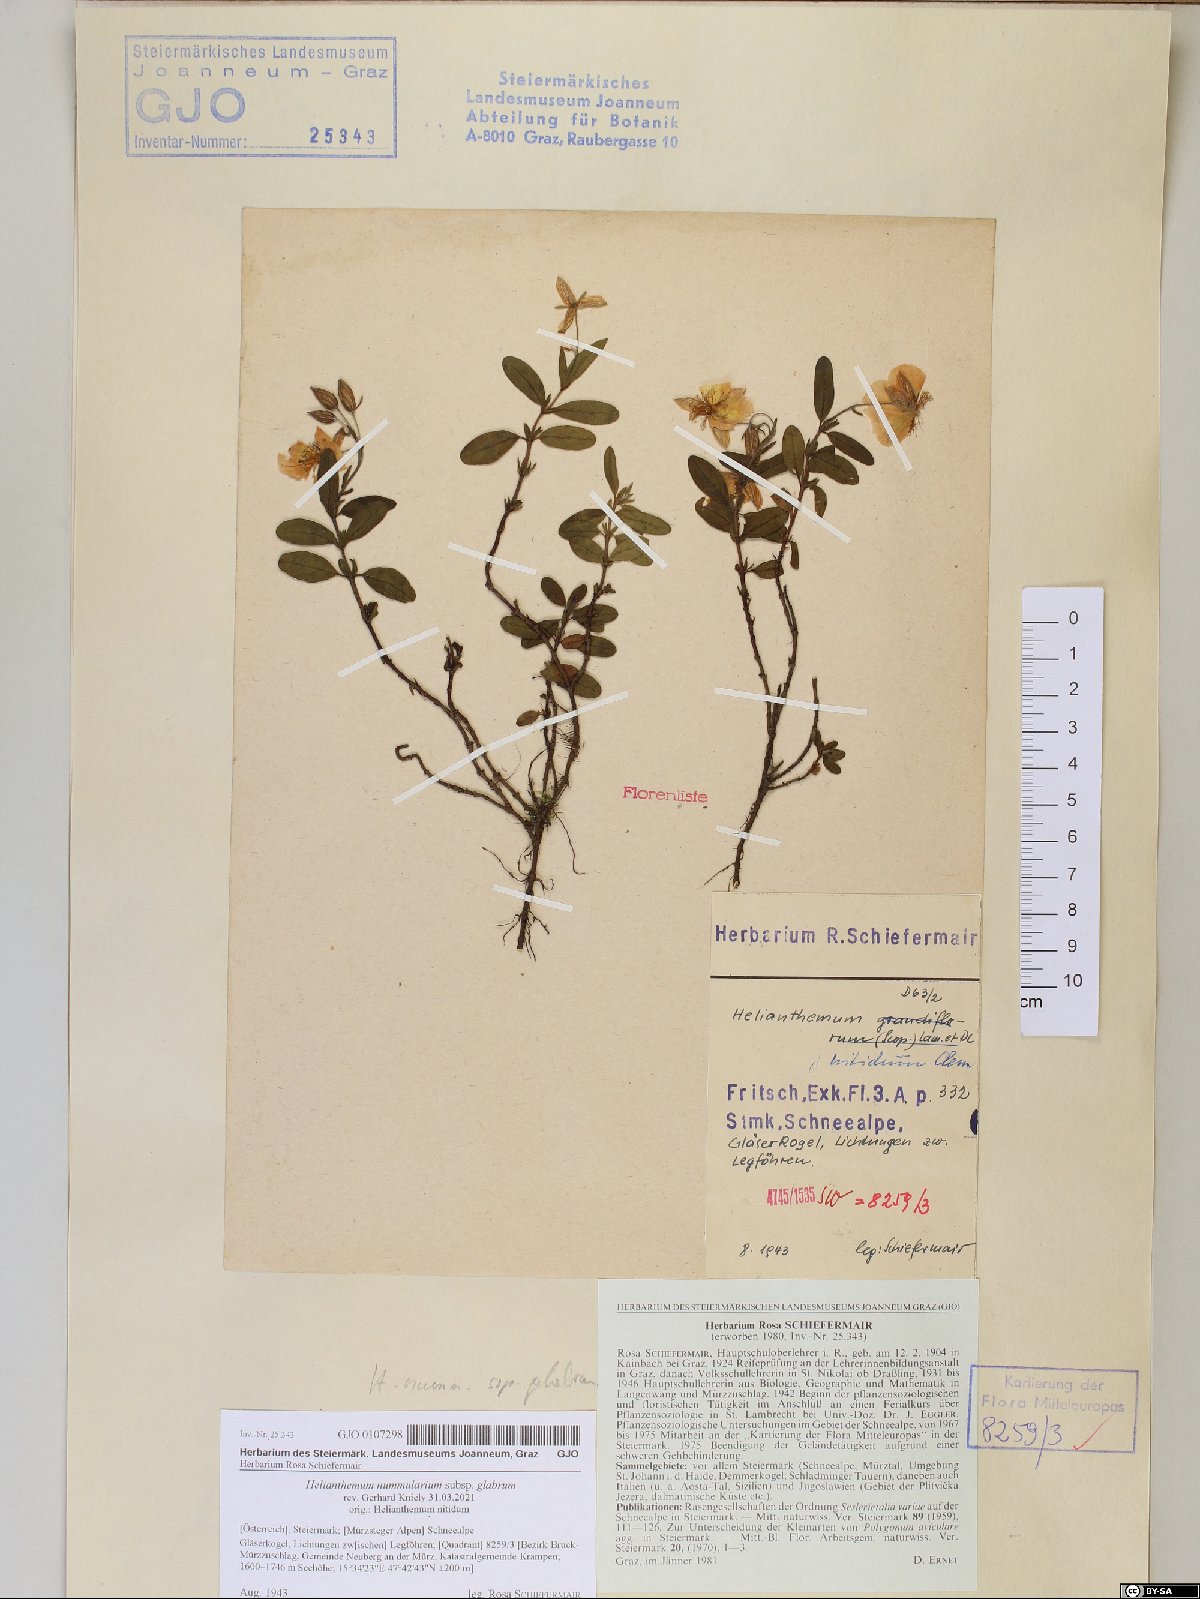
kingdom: Plantae
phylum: Tracheophyta
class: Magnoliopsida
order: Malvales
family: Cistaceae
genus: Helianthemum
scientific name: Helianthemum nummularium
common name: Common rock-rose
